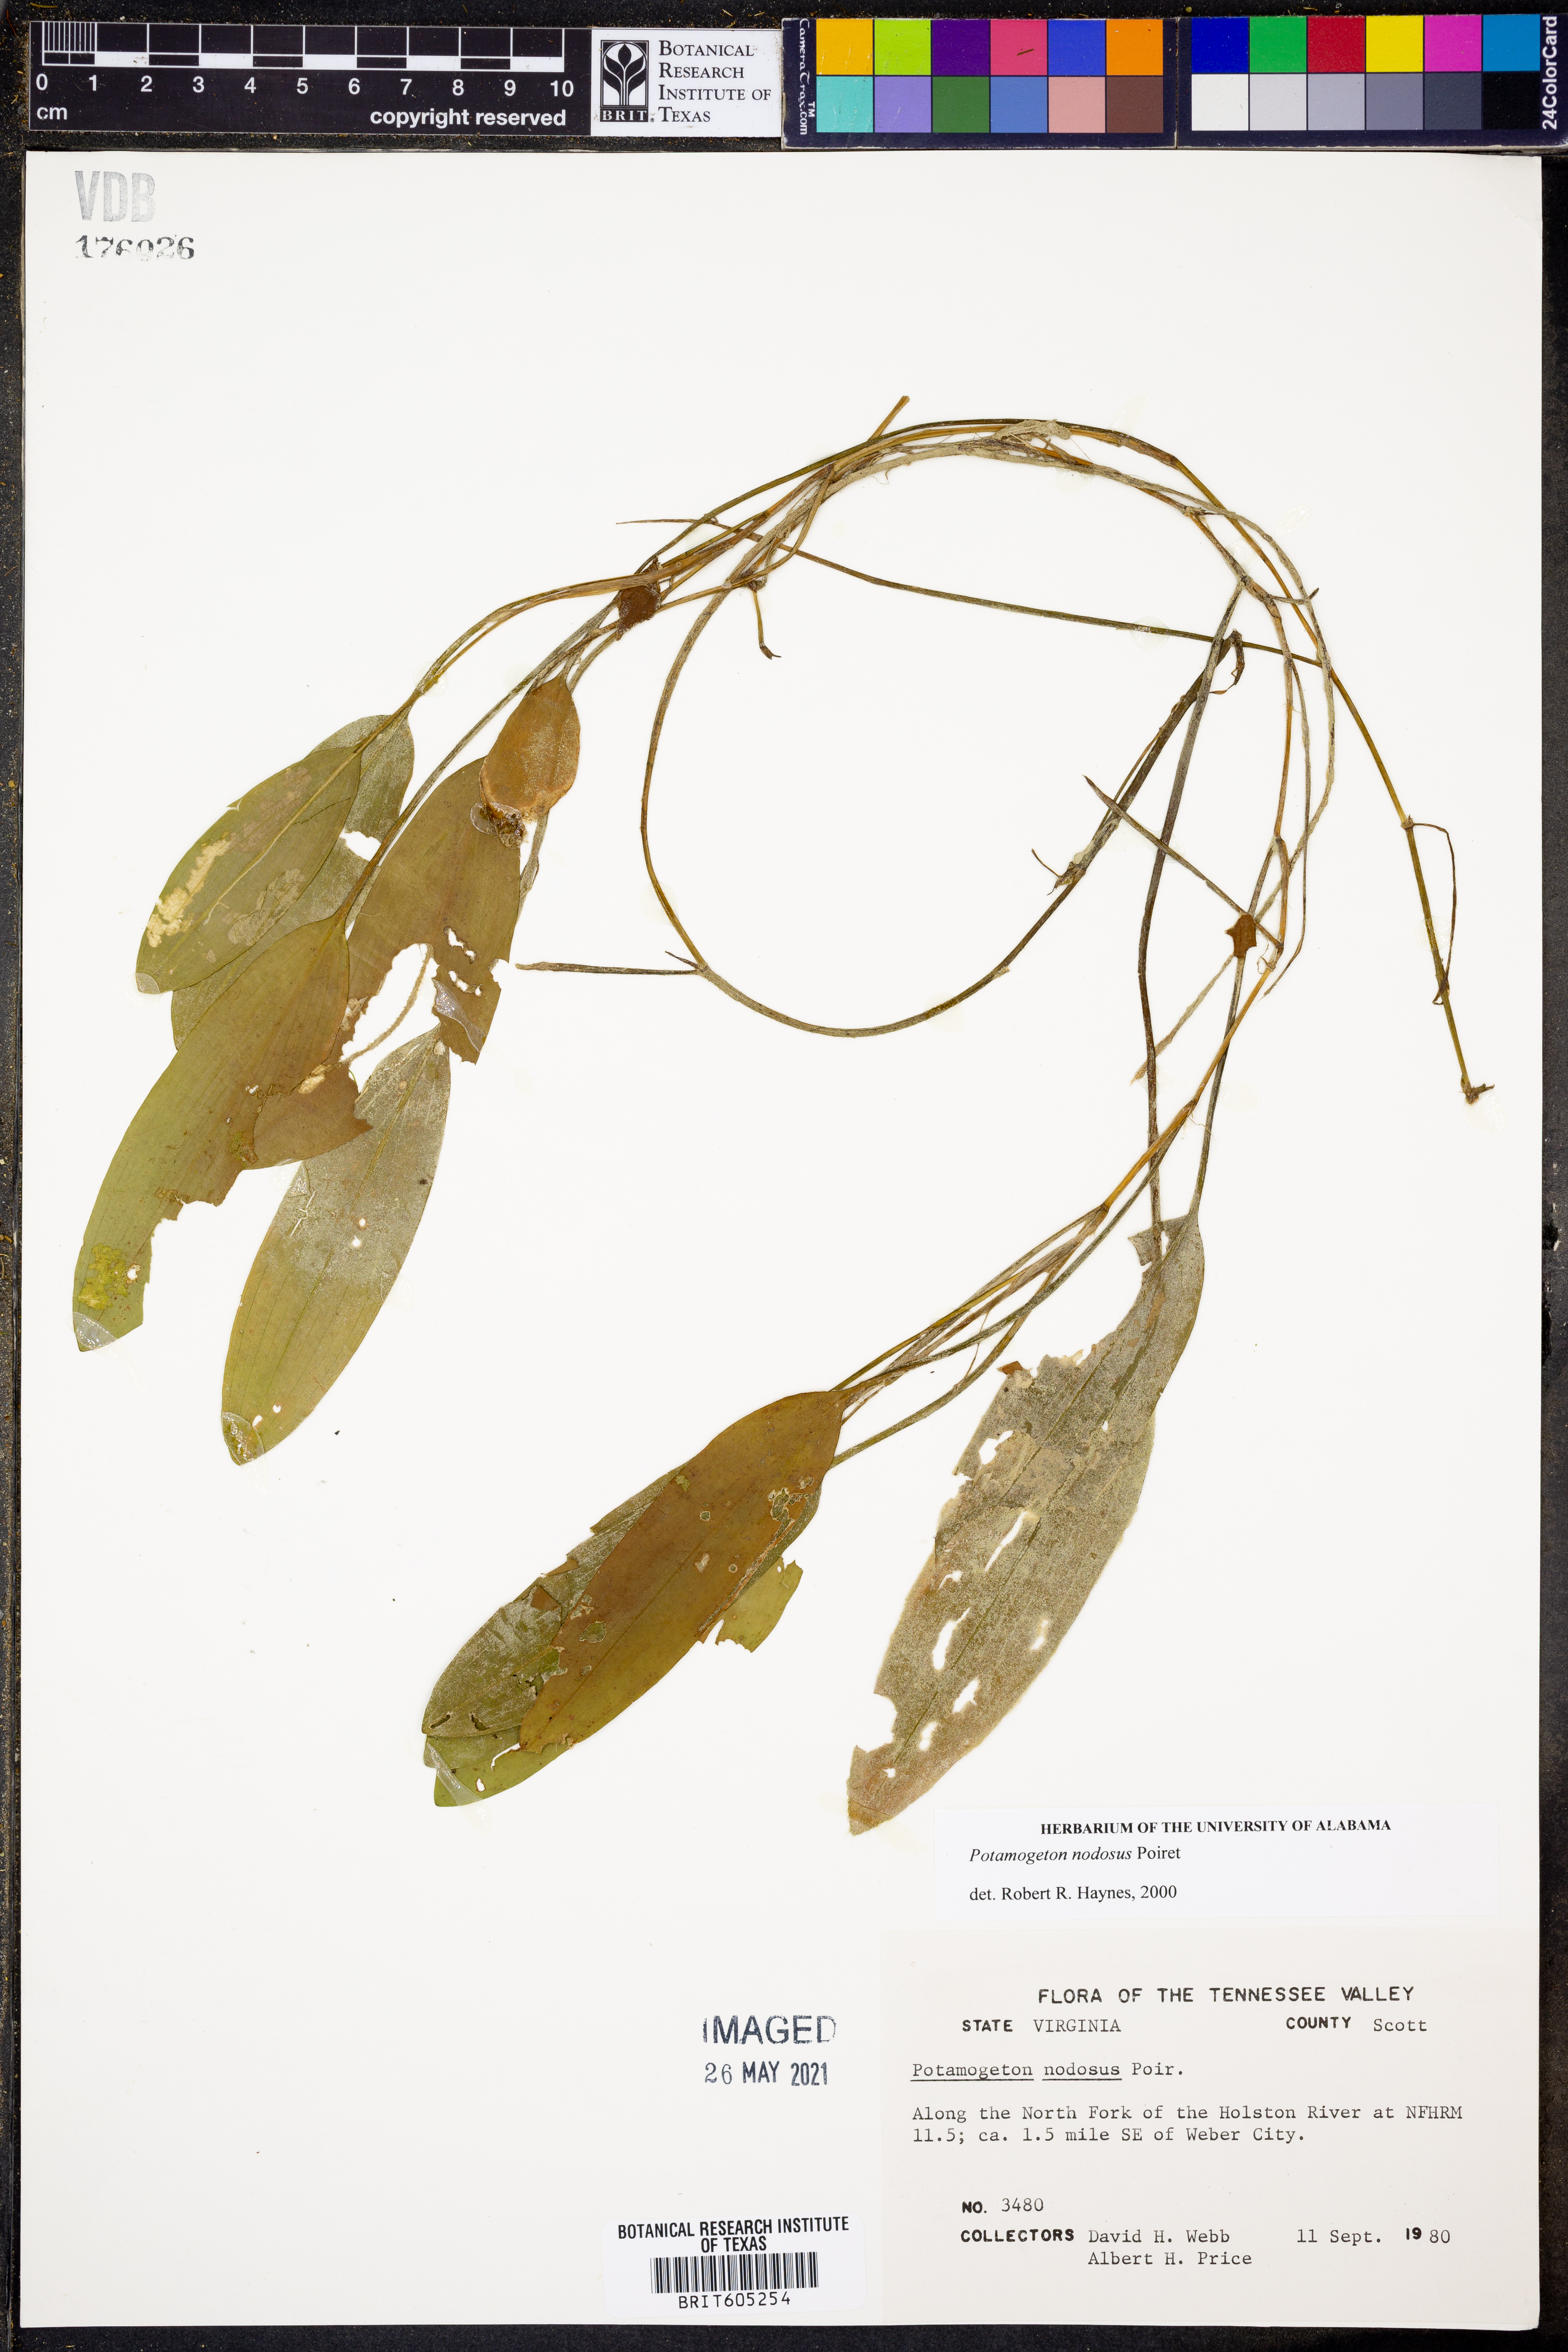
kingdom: Plantae
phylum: Tracheophyta
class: Liliopsida
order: Alismatales
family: Potamogetonaceae
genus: Potamogeton
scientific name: Potamogeton nodosus
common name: Loddon pondweed
